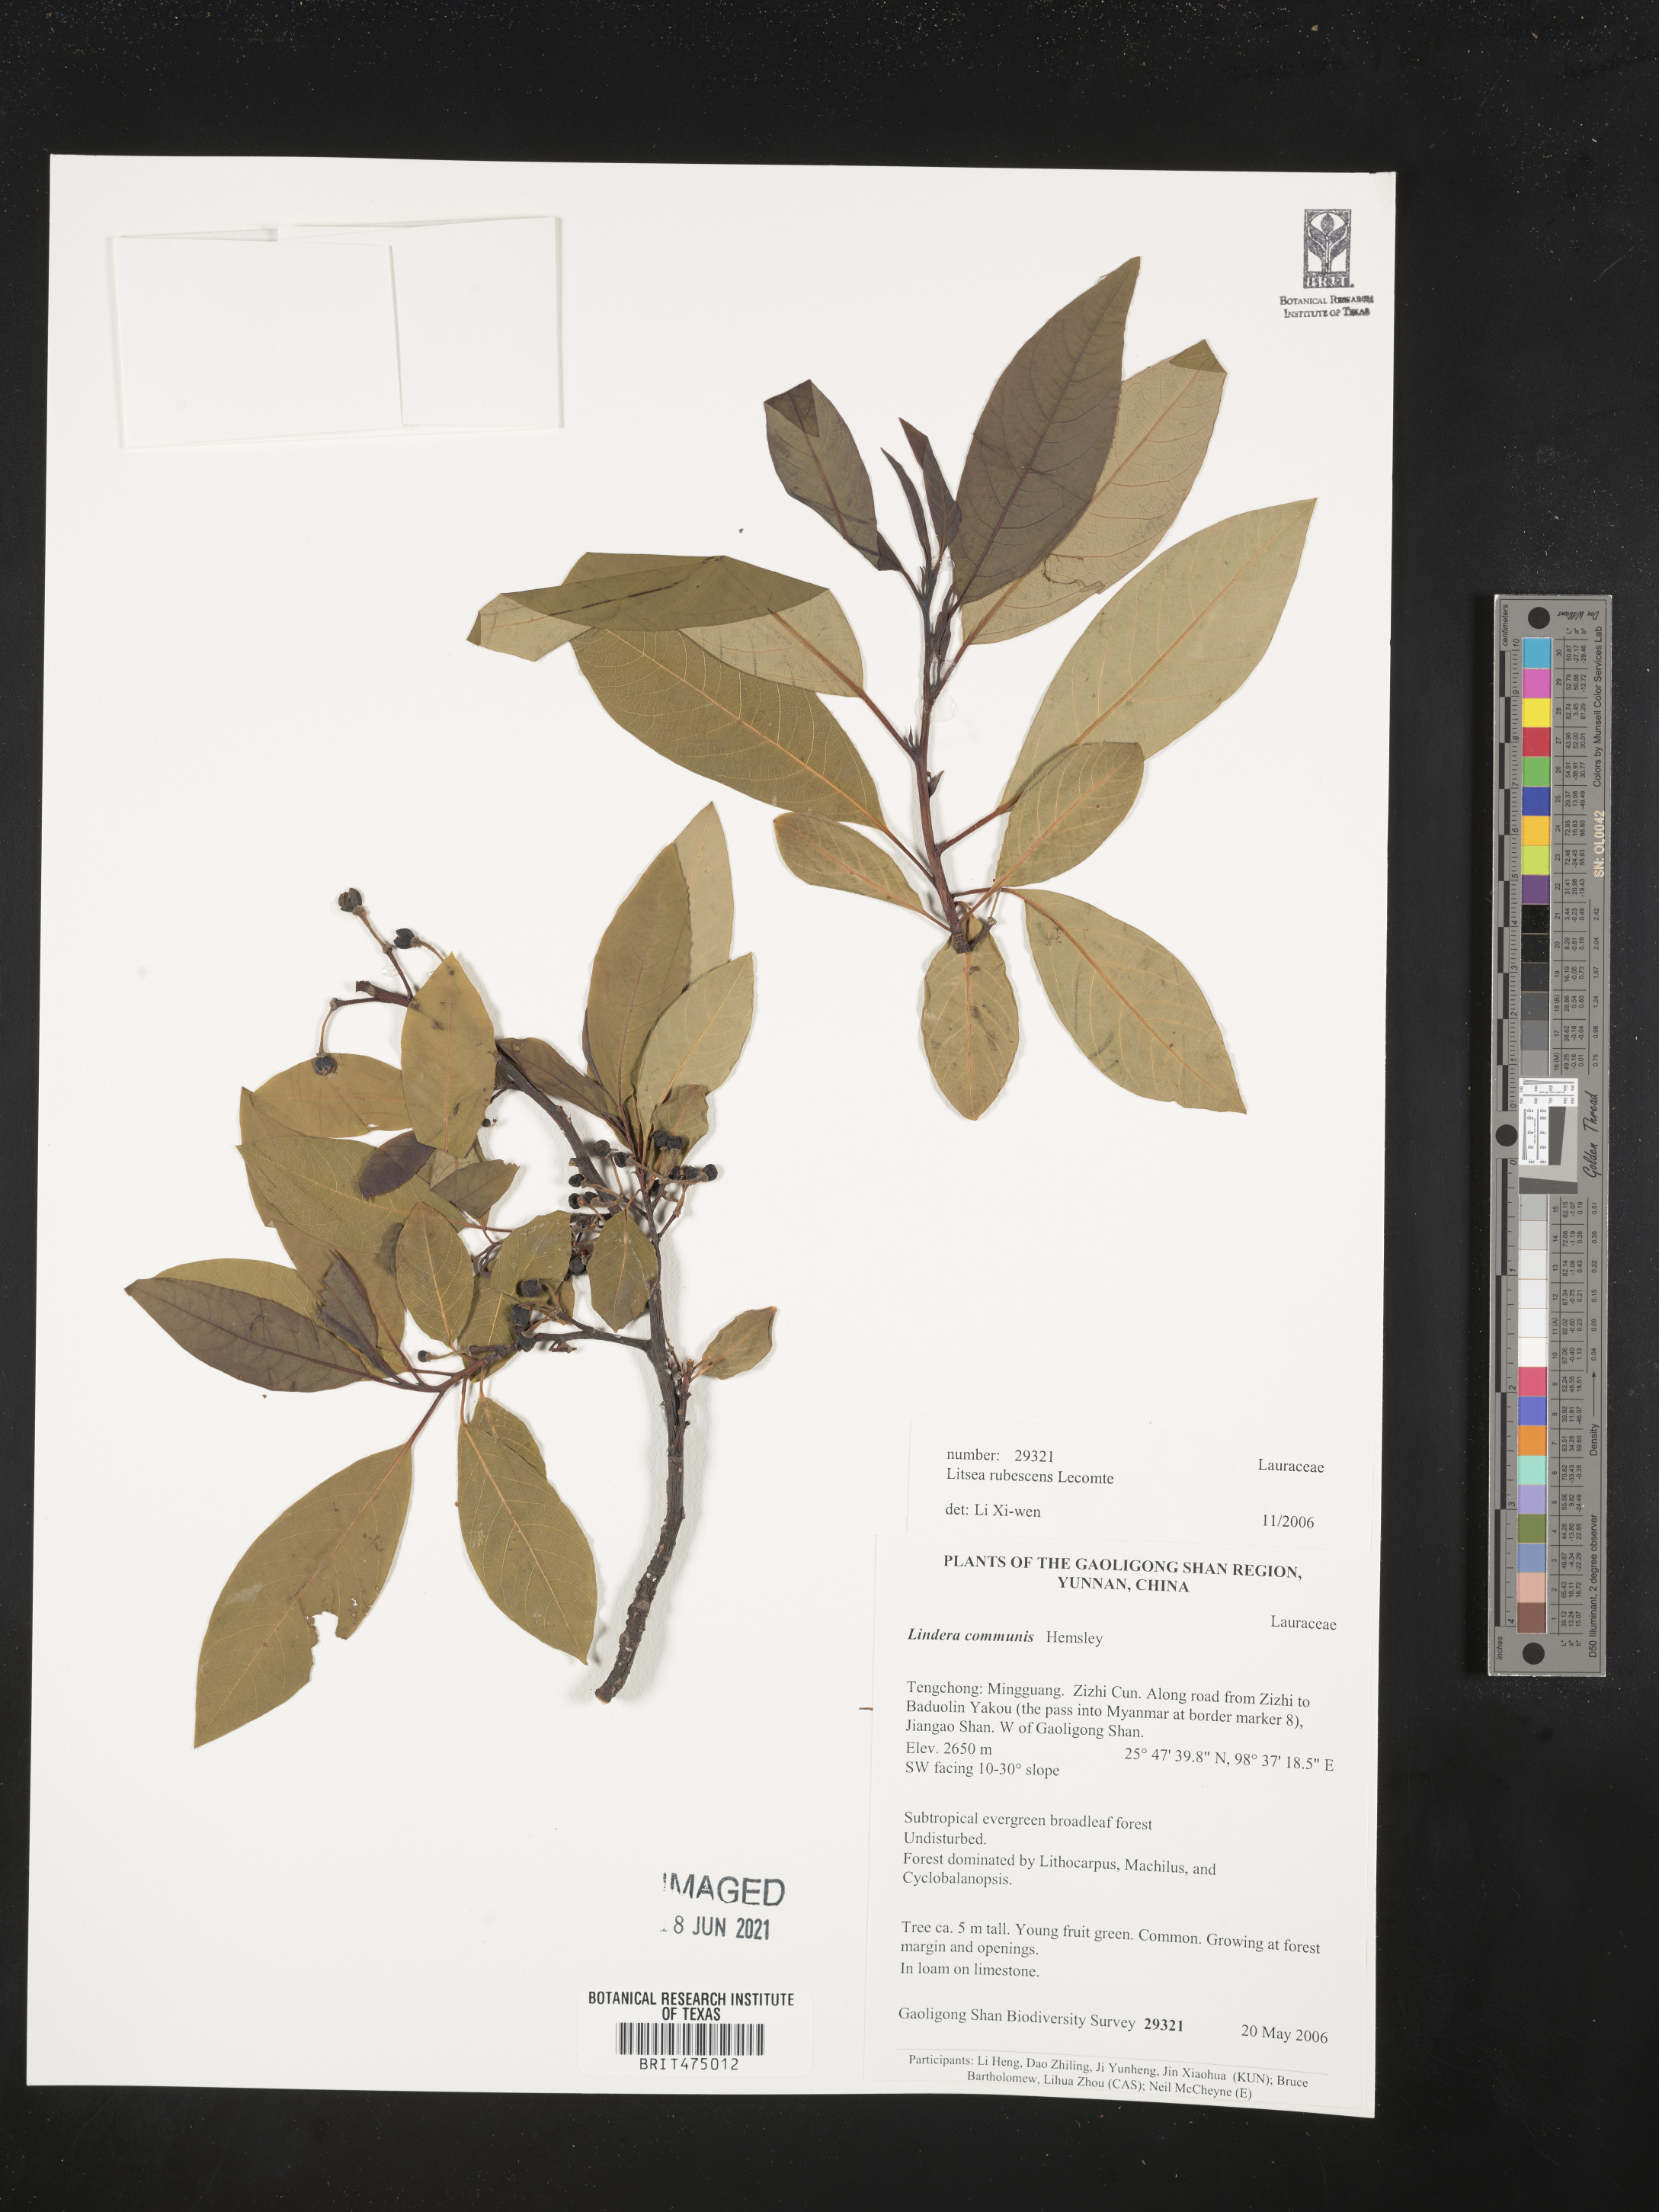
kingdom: Plantae
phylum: Tracheophyta
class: Pinopsida
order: Pinales
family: Pinaceae
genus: Pinus
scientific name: Pinus bhutanica
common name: Bhutan pine
